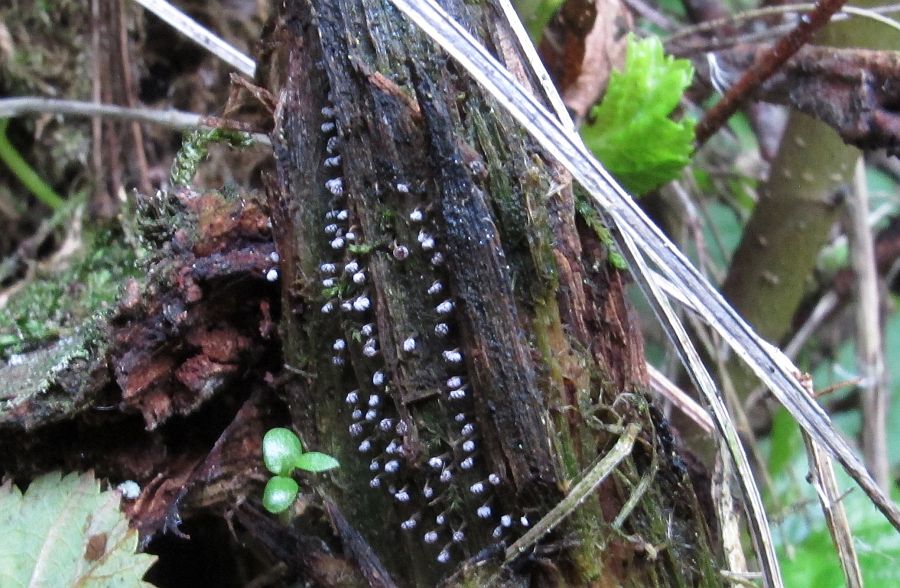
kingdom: Protozoa
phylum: Mycetozoa
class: Myxomycetes
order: Physarales
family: Physaraceae
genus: Physarum
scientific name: Physarum album
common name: nikkende støvknop
